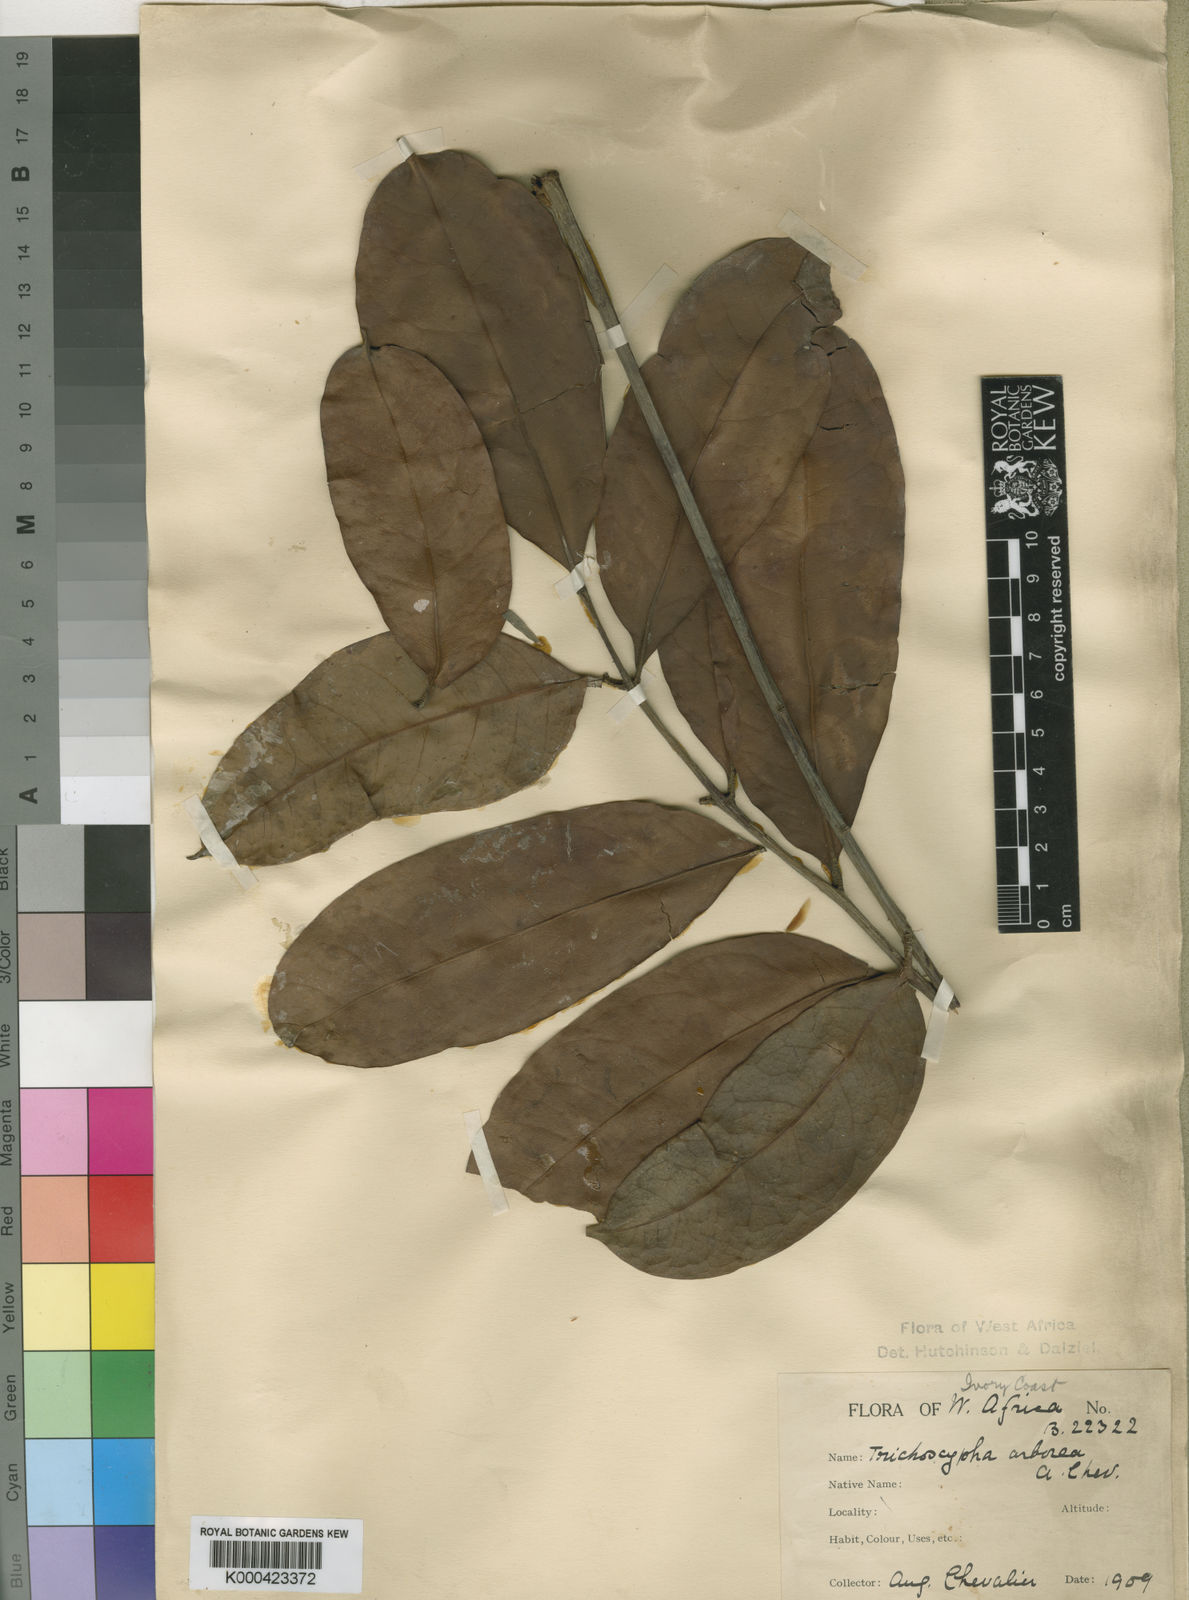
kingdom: Plantae
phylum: Tracheophyta
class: Magnoliopsida
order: Sapindales
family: Anacardiaceae
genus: Trichoscypha
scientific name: Trichoscypha arborea
